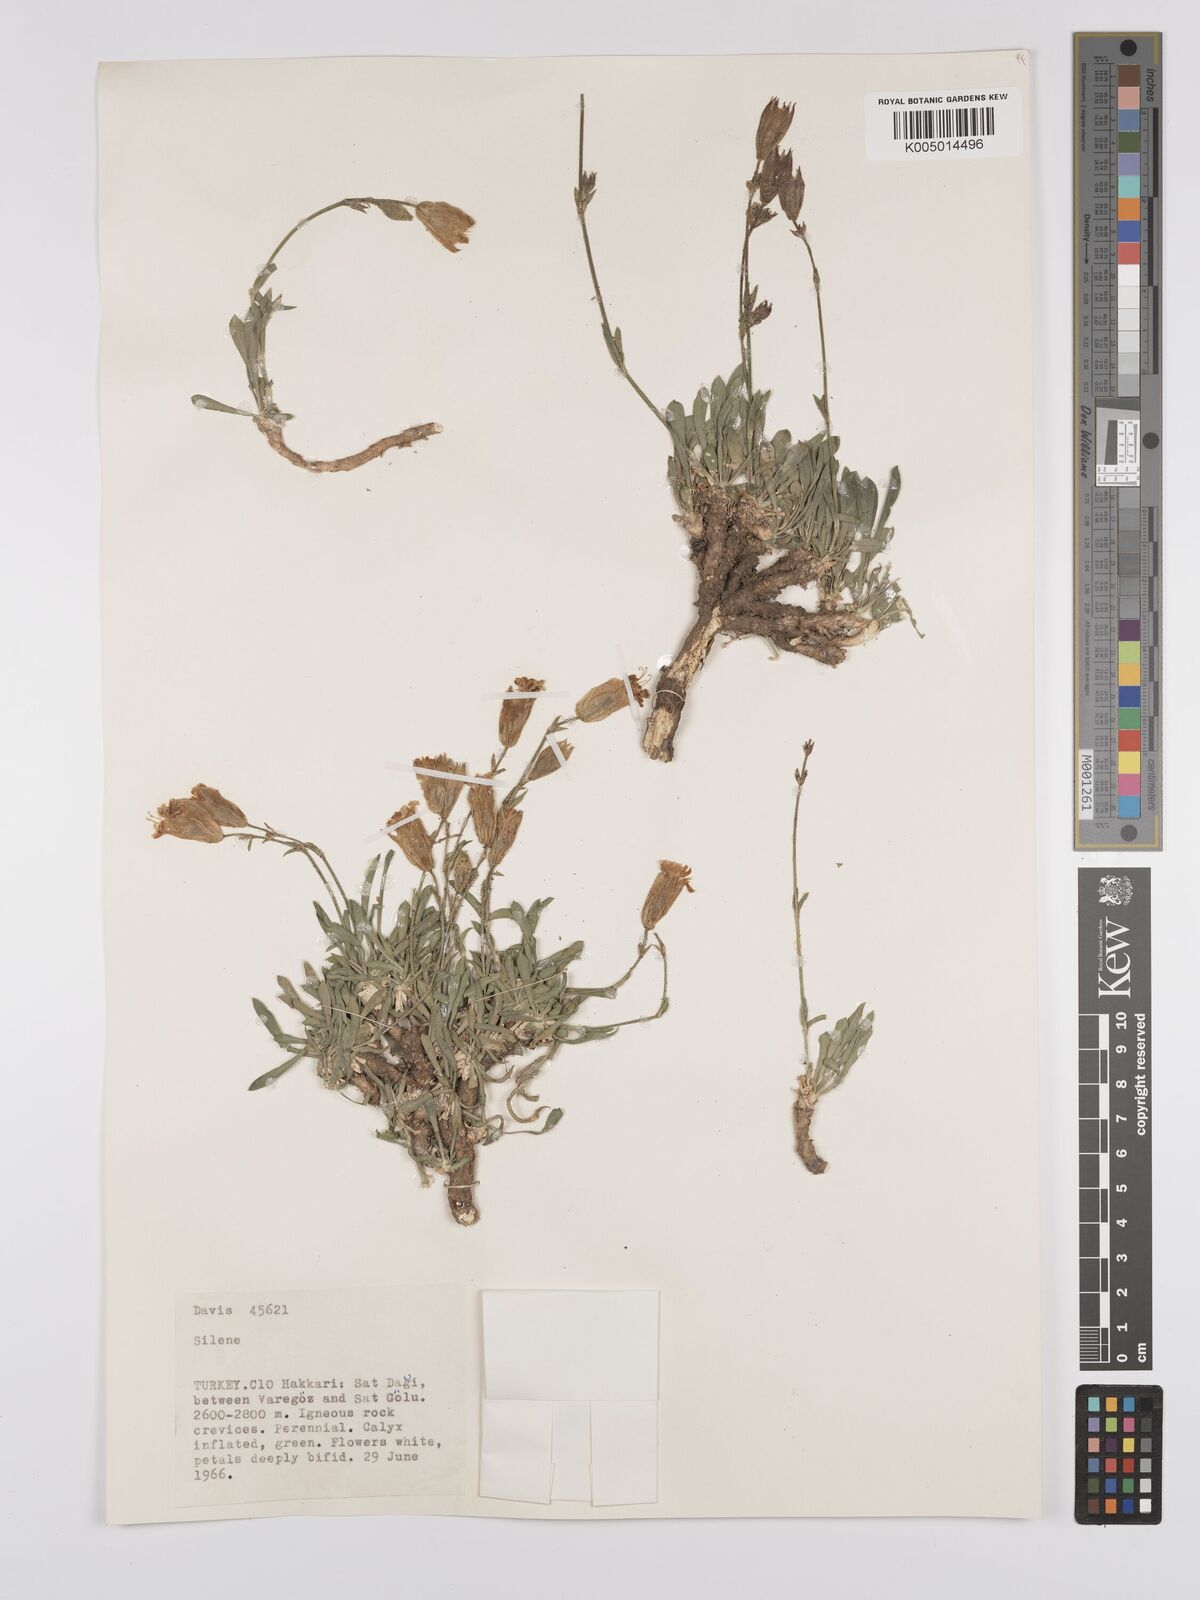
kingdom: Plantae
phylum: Tracheophyta
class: Magnoliopsida
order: Caryophyllales
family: Caryophyllaceae
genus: Silene
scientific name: Silene
